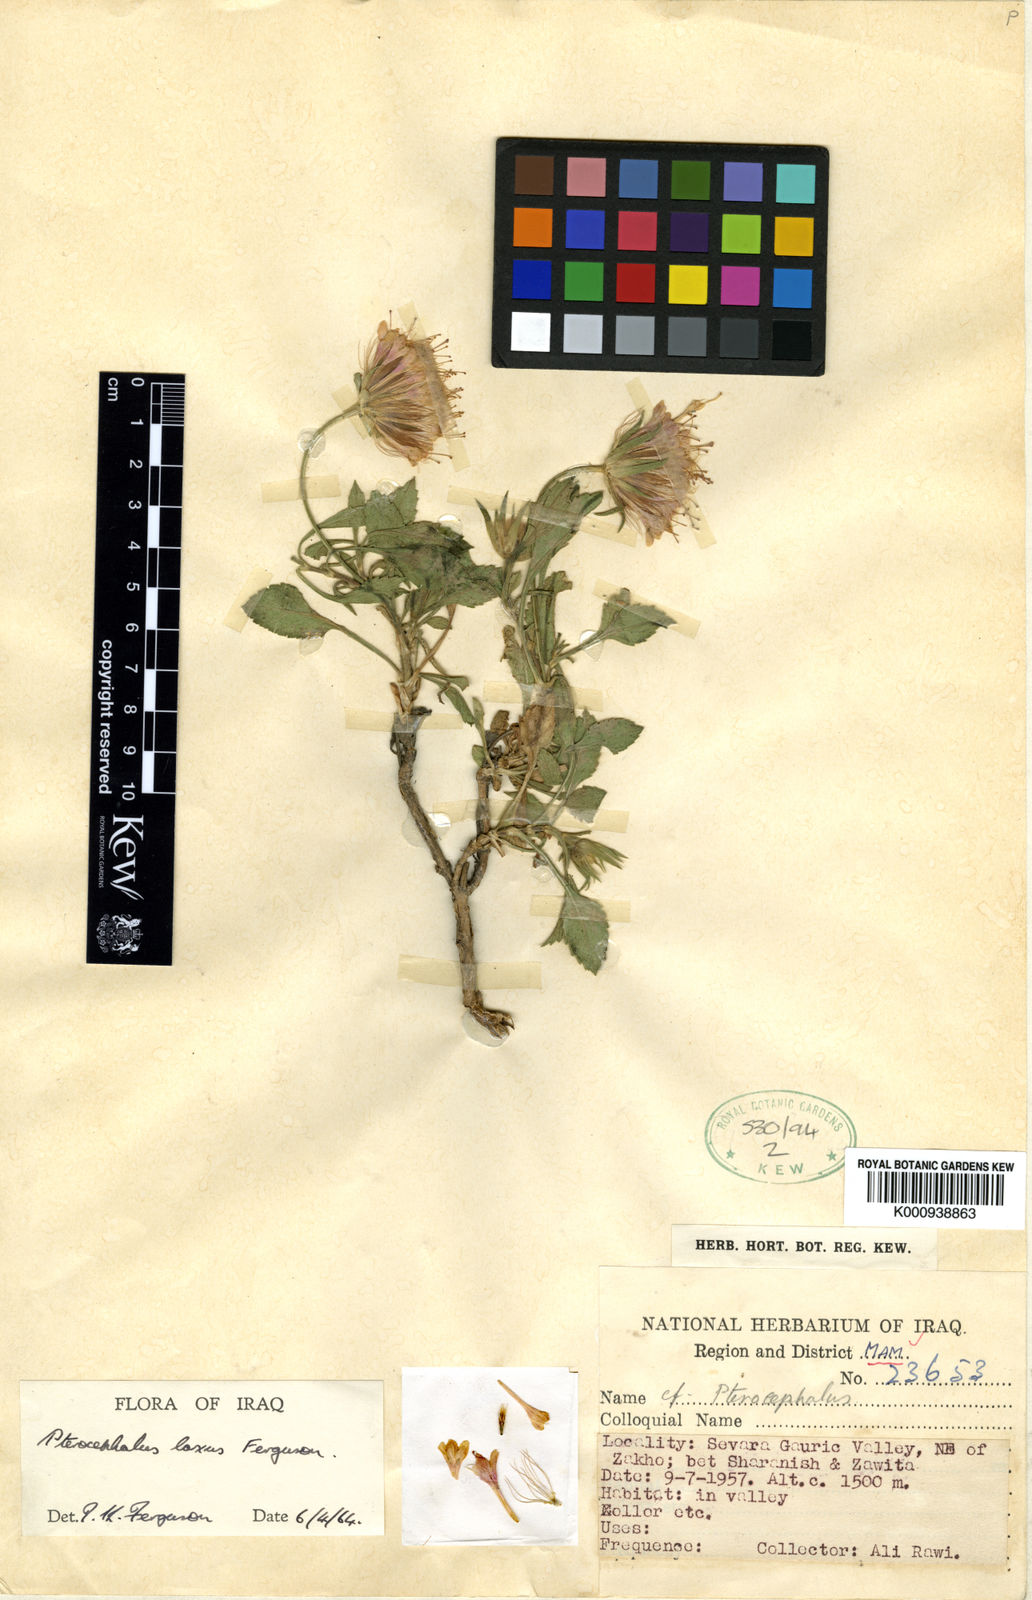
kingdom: Plantae
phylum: Tracheophyta
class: Magnoliopsida
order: Dipsacales
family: Caprifoliaceae
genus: Pterocephalus
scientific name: Pterocephalus laxus
